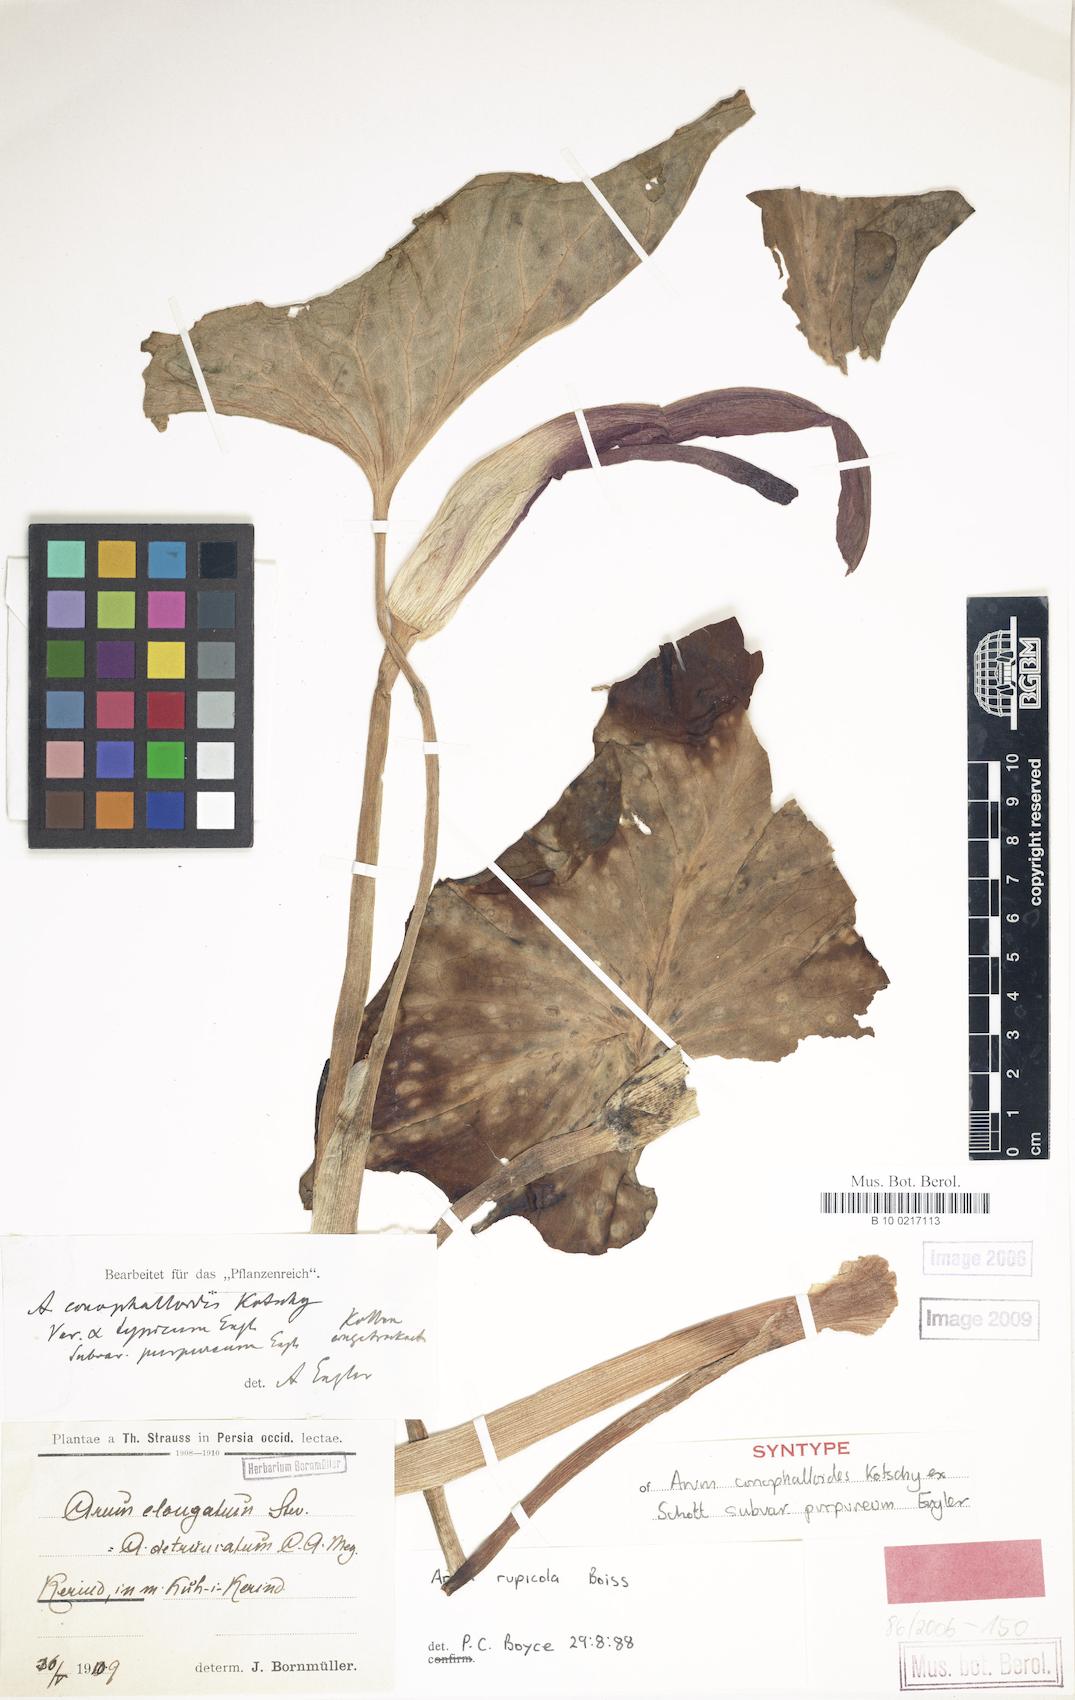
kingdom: Plantae
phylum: Tracheophyta
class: Liliopsida
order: Alismatales
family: Araceae
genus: Arum
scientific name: Arum rupicola
